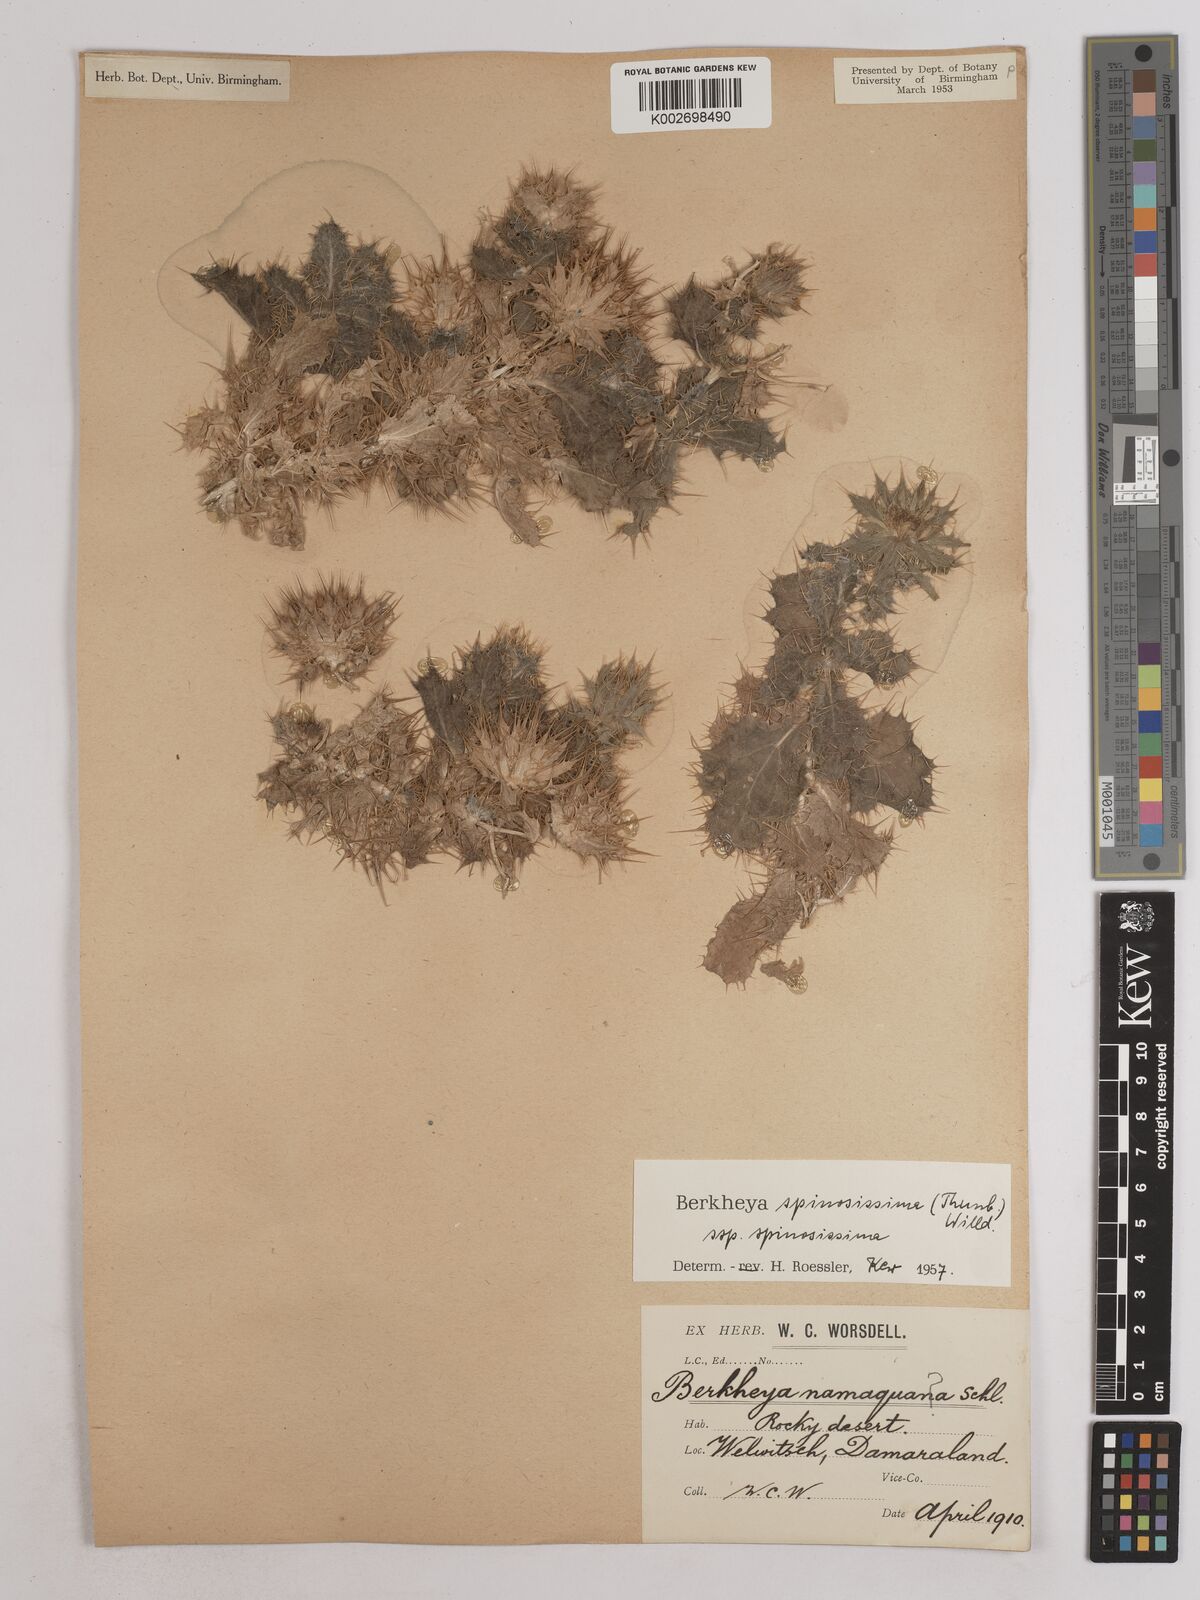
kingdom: Plantae
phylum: Tracheophyta
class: Magnoliopsida
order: Asterales
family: Asteraceae
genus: Berkheya
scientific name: Berkheya spinosissima
